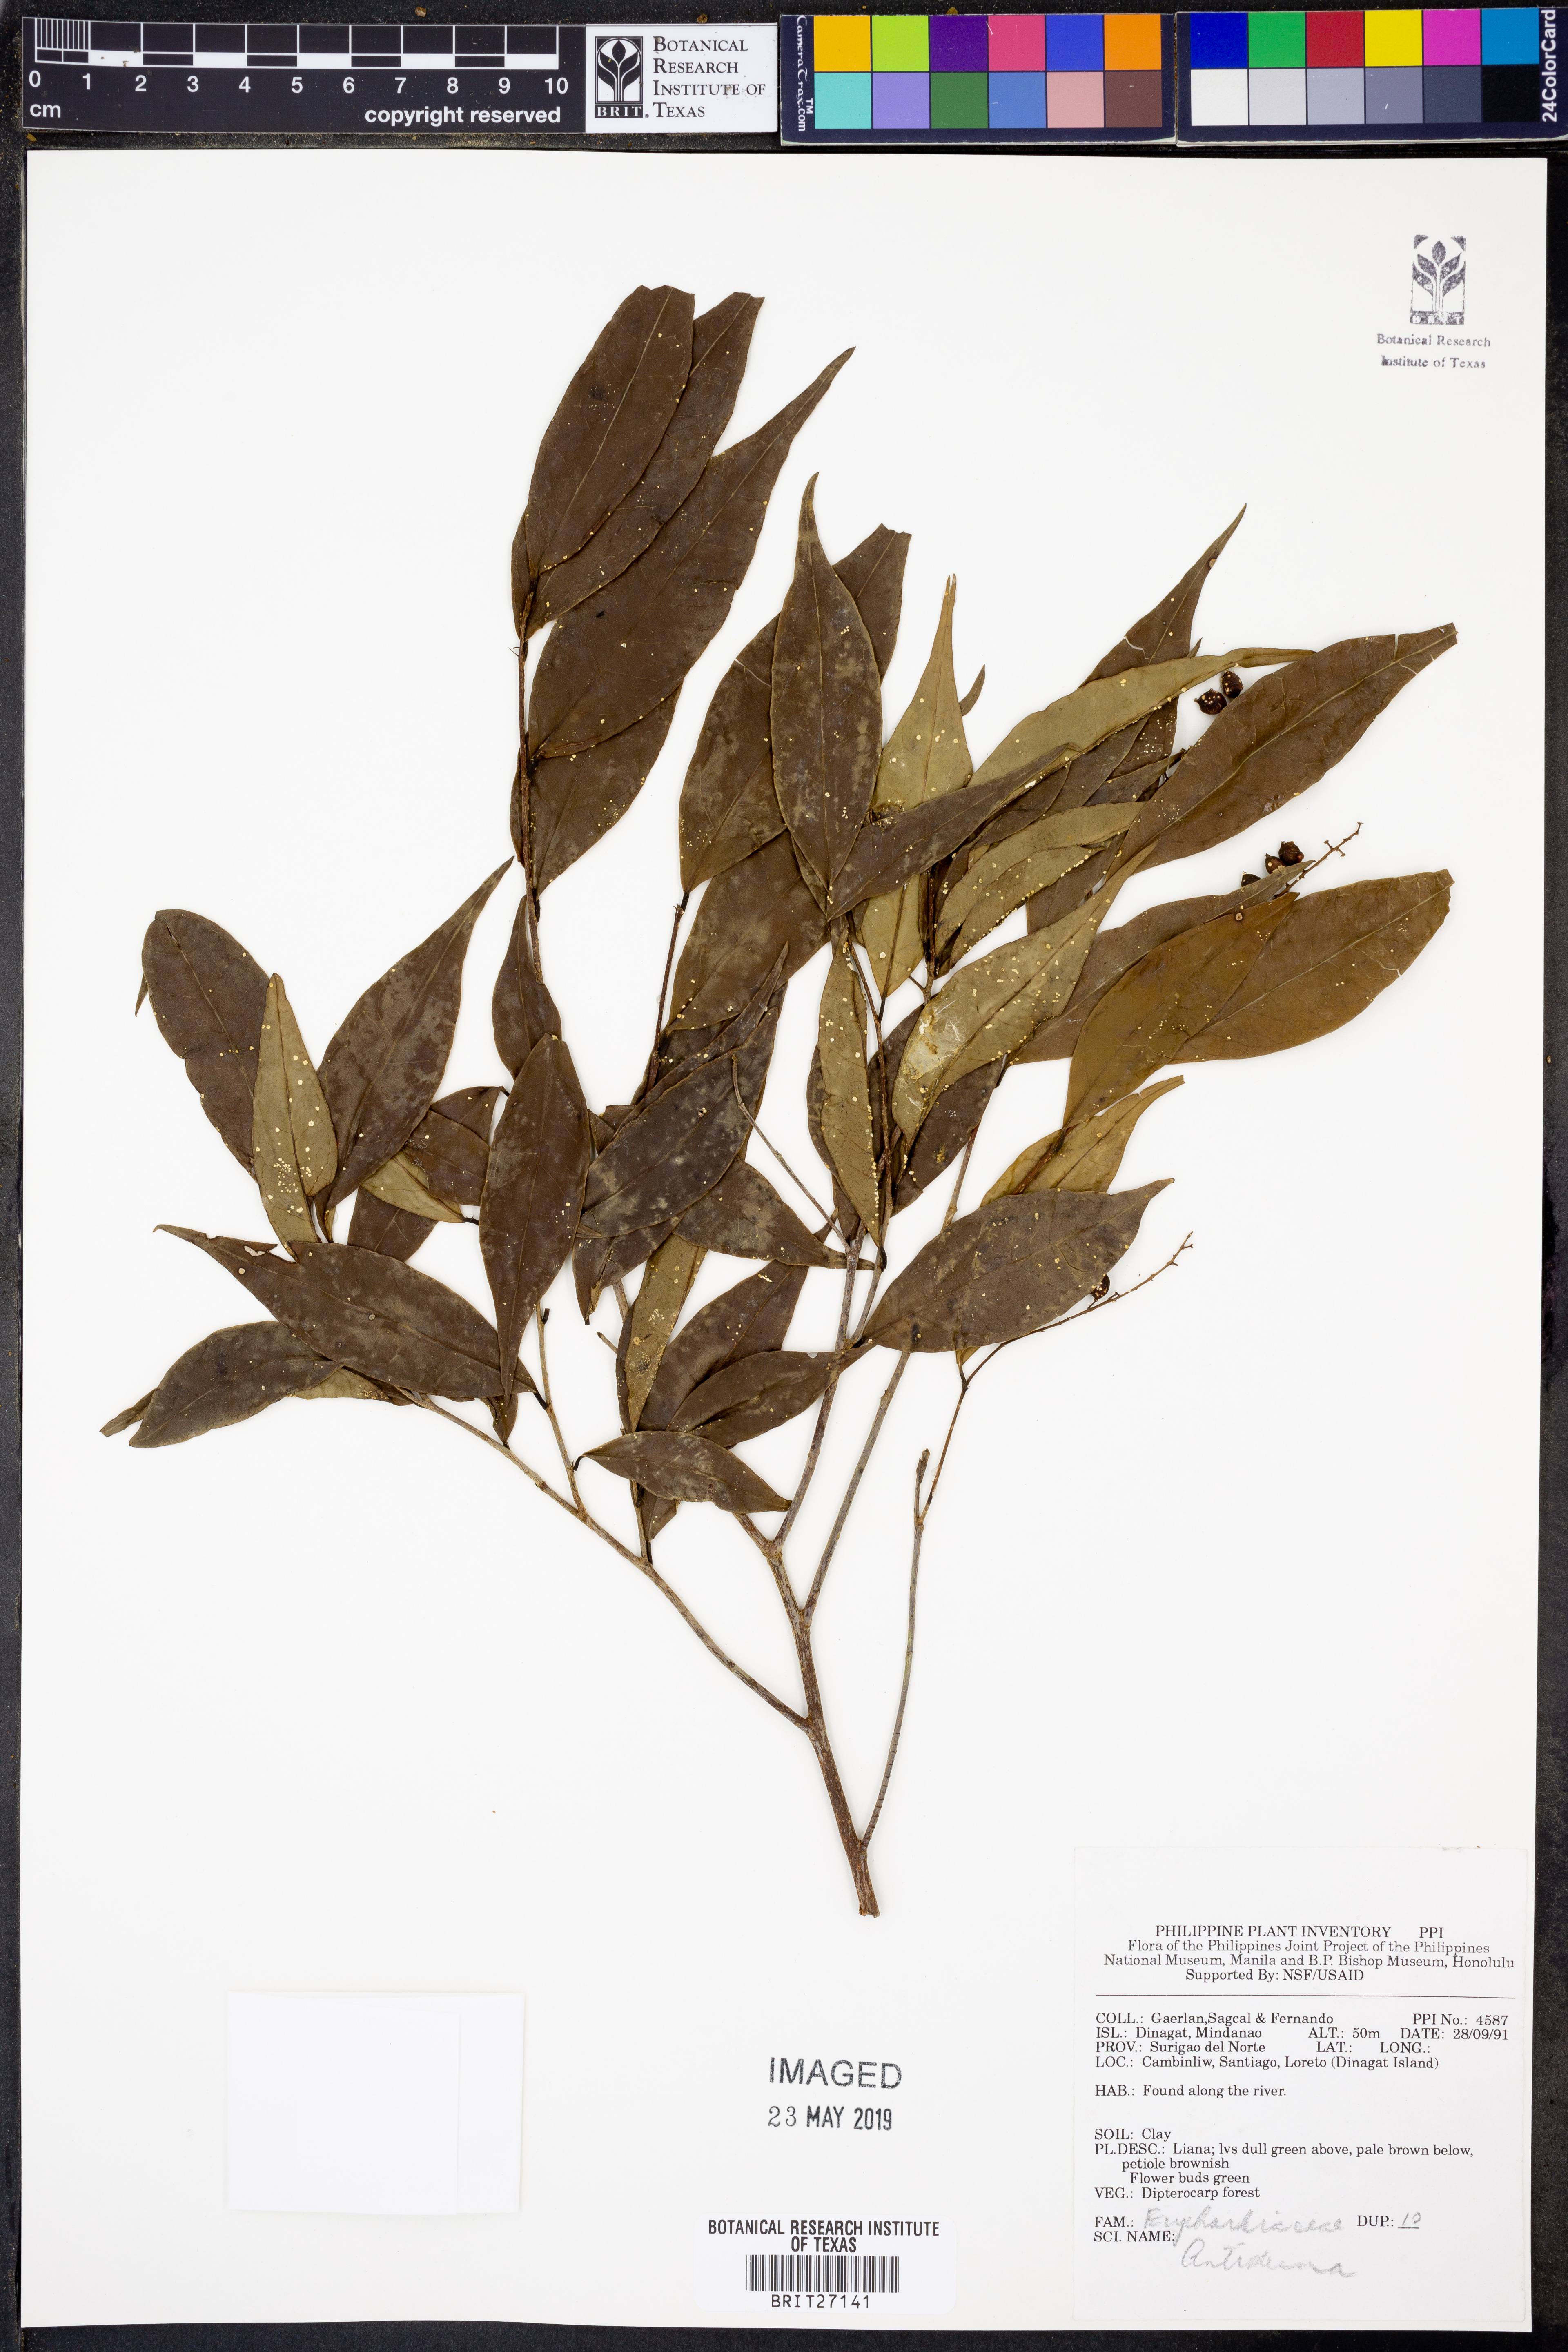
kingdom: Plantae
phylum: Tracheophyta
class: Magnoliopsida
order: Malpighiales
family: Phyllanthaceae
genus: Antidesma
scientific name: Antidesma
